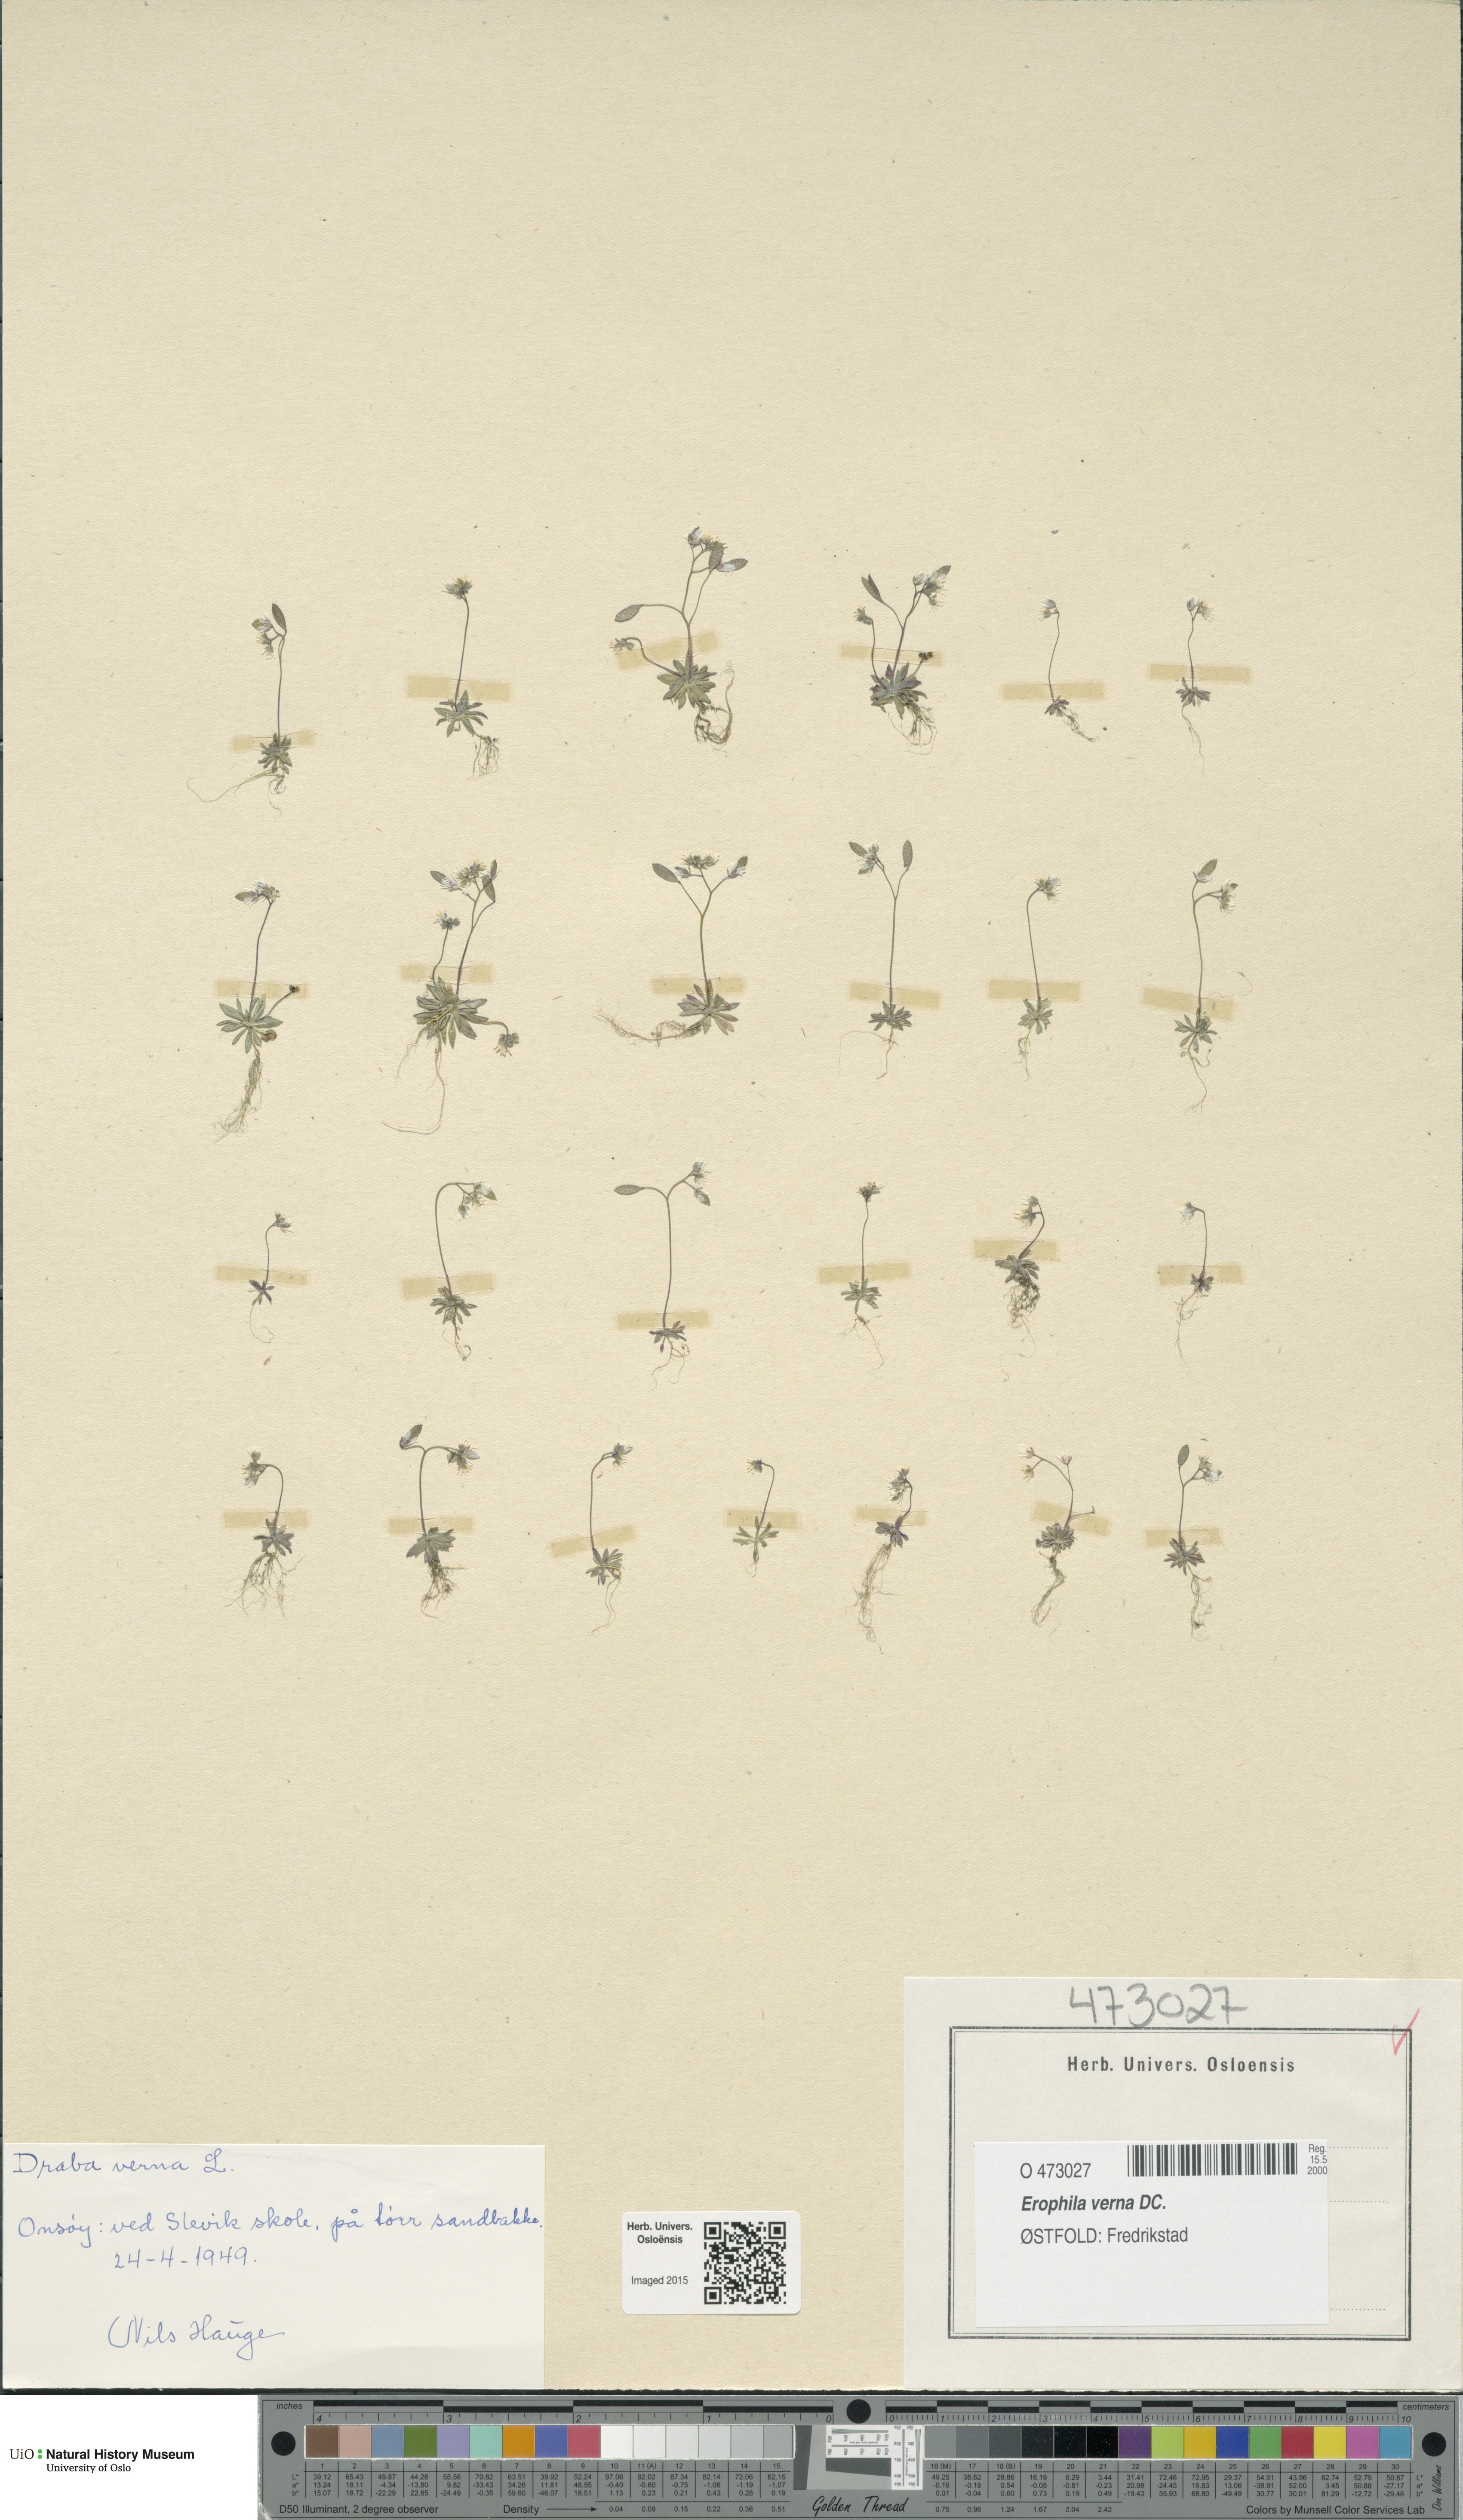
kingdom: Plantae
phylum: Tracheophyta
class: Magnoliopsida
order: Brassicales
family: Brassicaceae
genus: Draba
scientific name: Draba verna
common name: Spring draba
